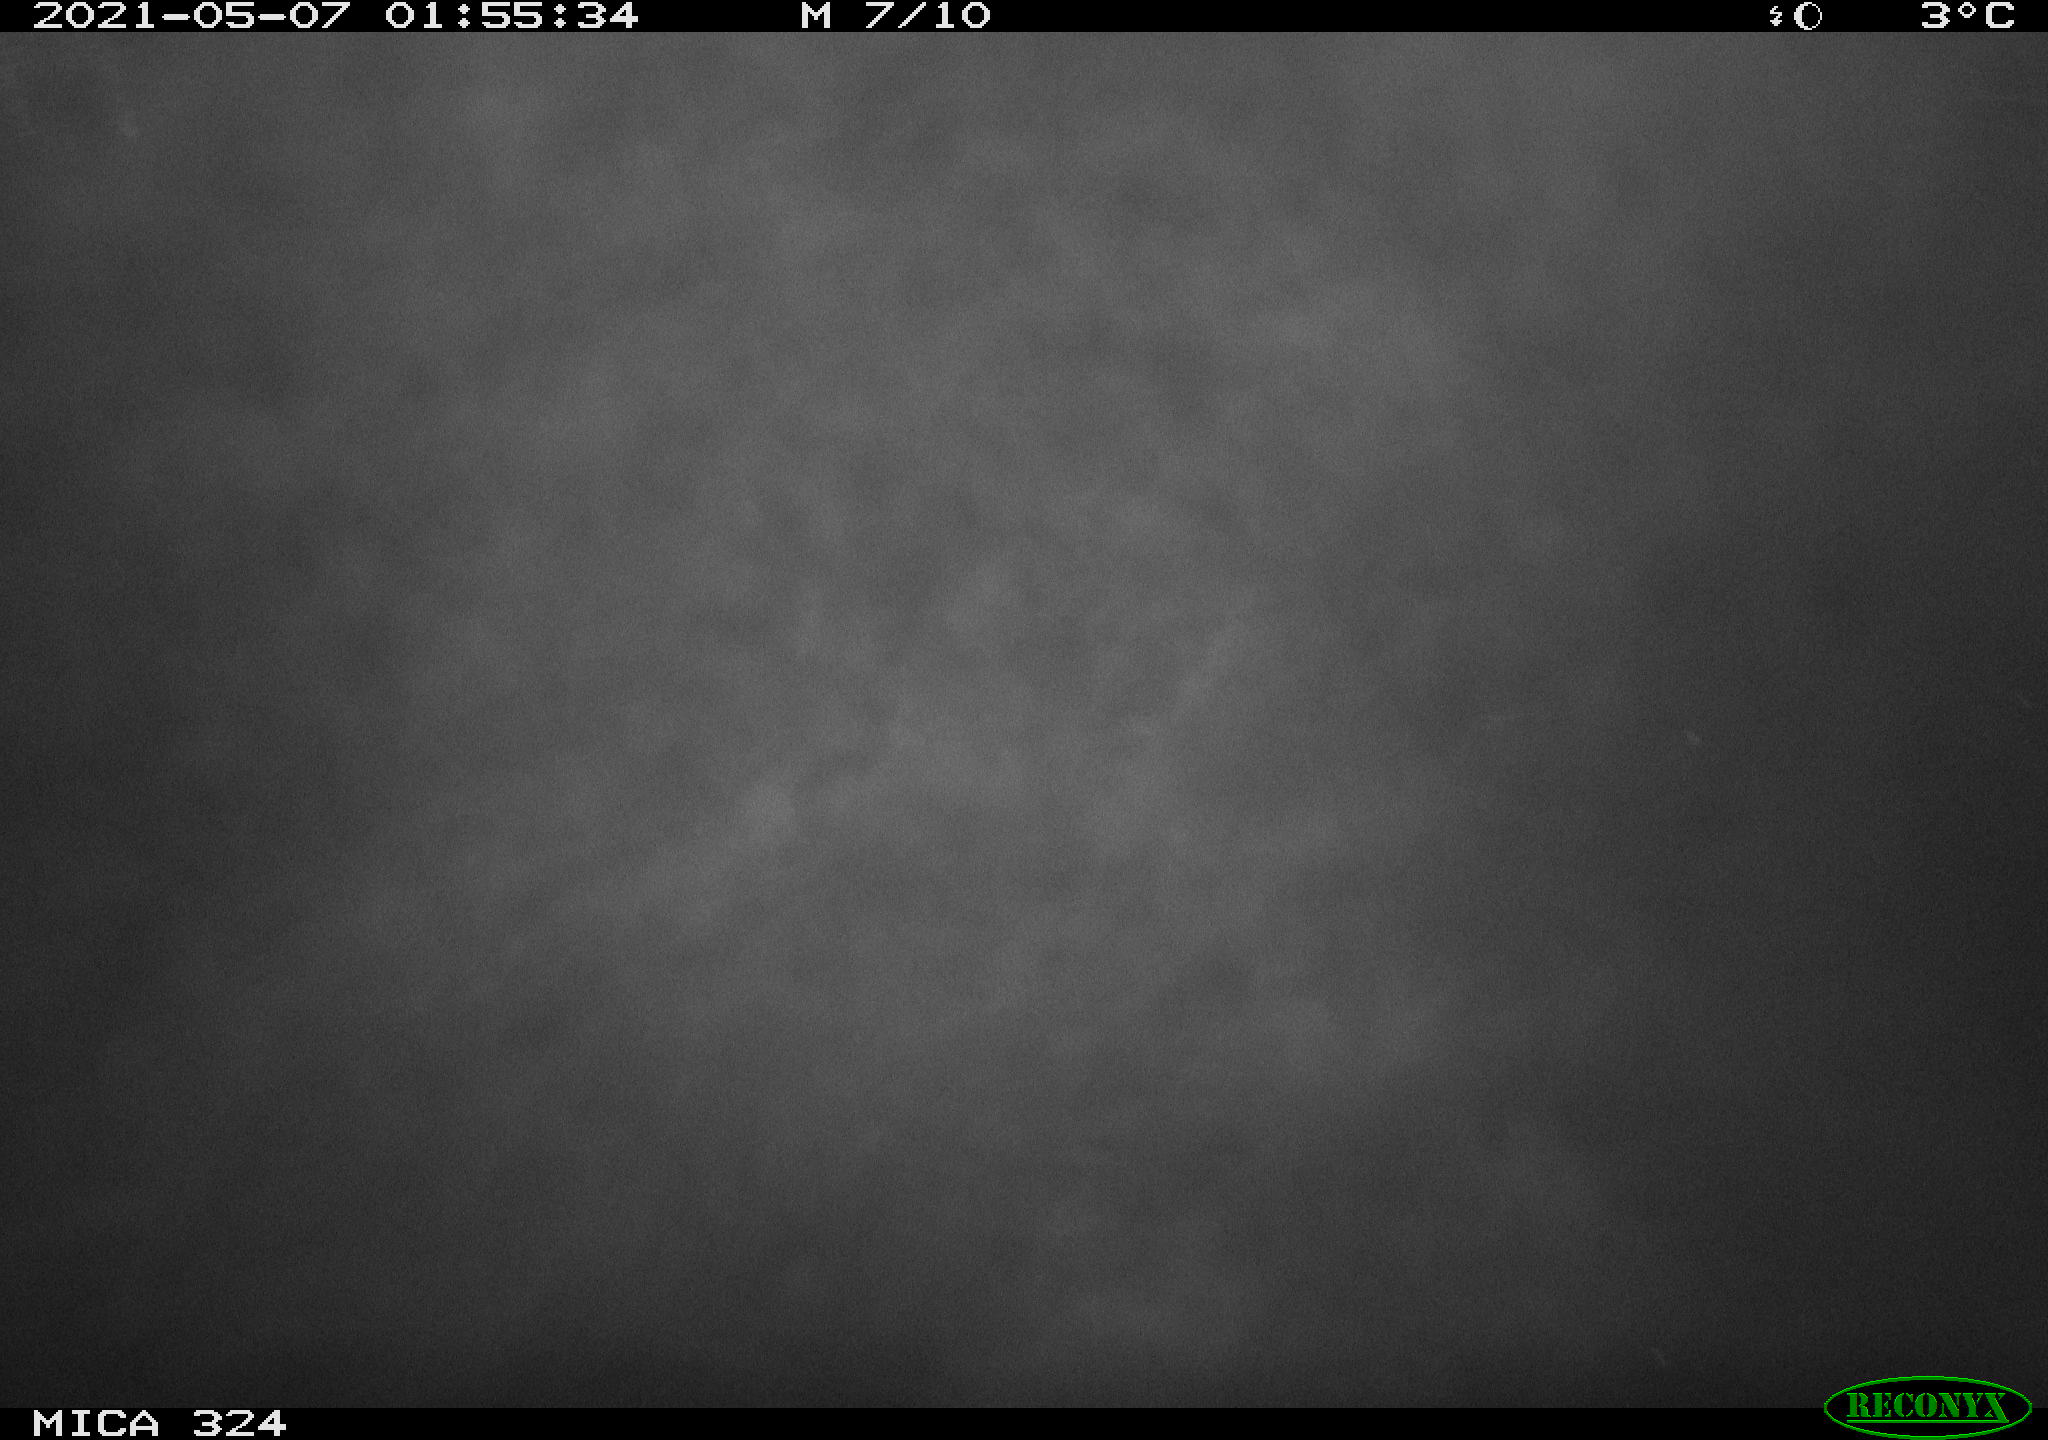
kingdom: Animalia
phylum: Chordata
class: Aves
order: Anseriformes
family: Anatidae
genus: Anas
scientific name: Anas platyrhynchos
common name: Mallard
